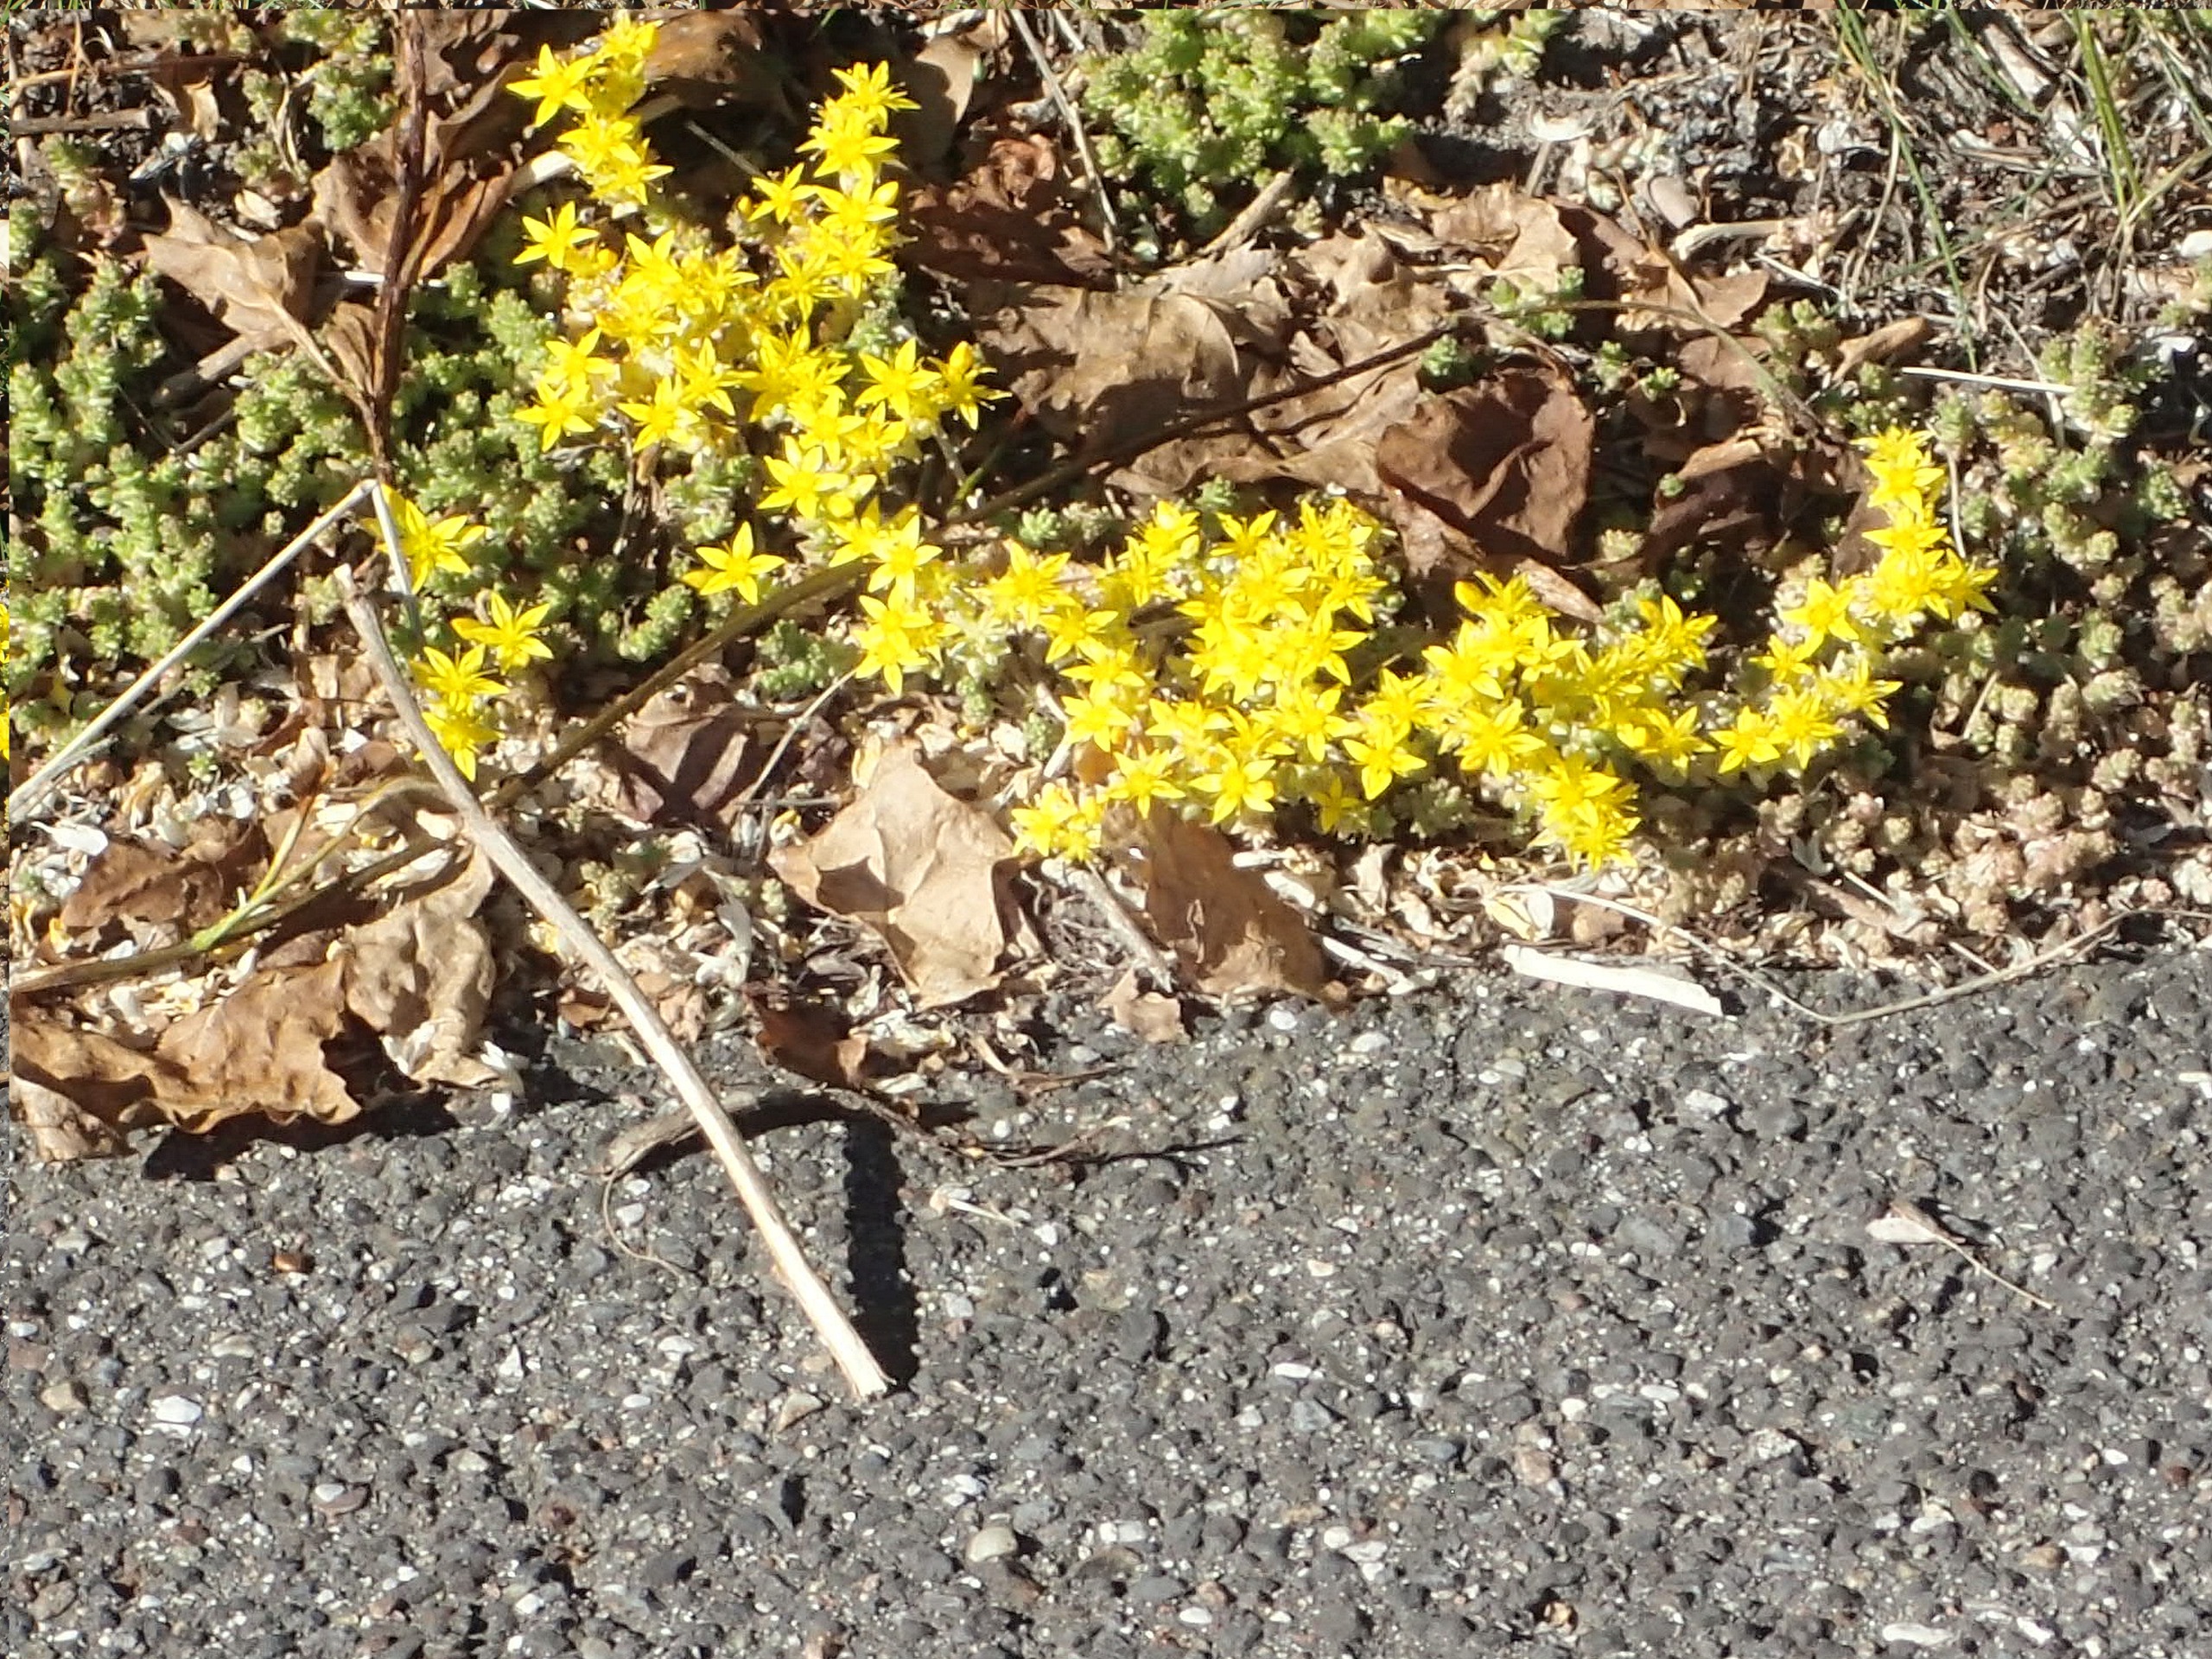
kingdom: Plantae
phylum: Tracheophyta
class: Magnoliopsida
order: Saxifragales
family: Crassulaceae
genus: Sedum
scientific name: Sedum acre
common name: Bidende stenurt
